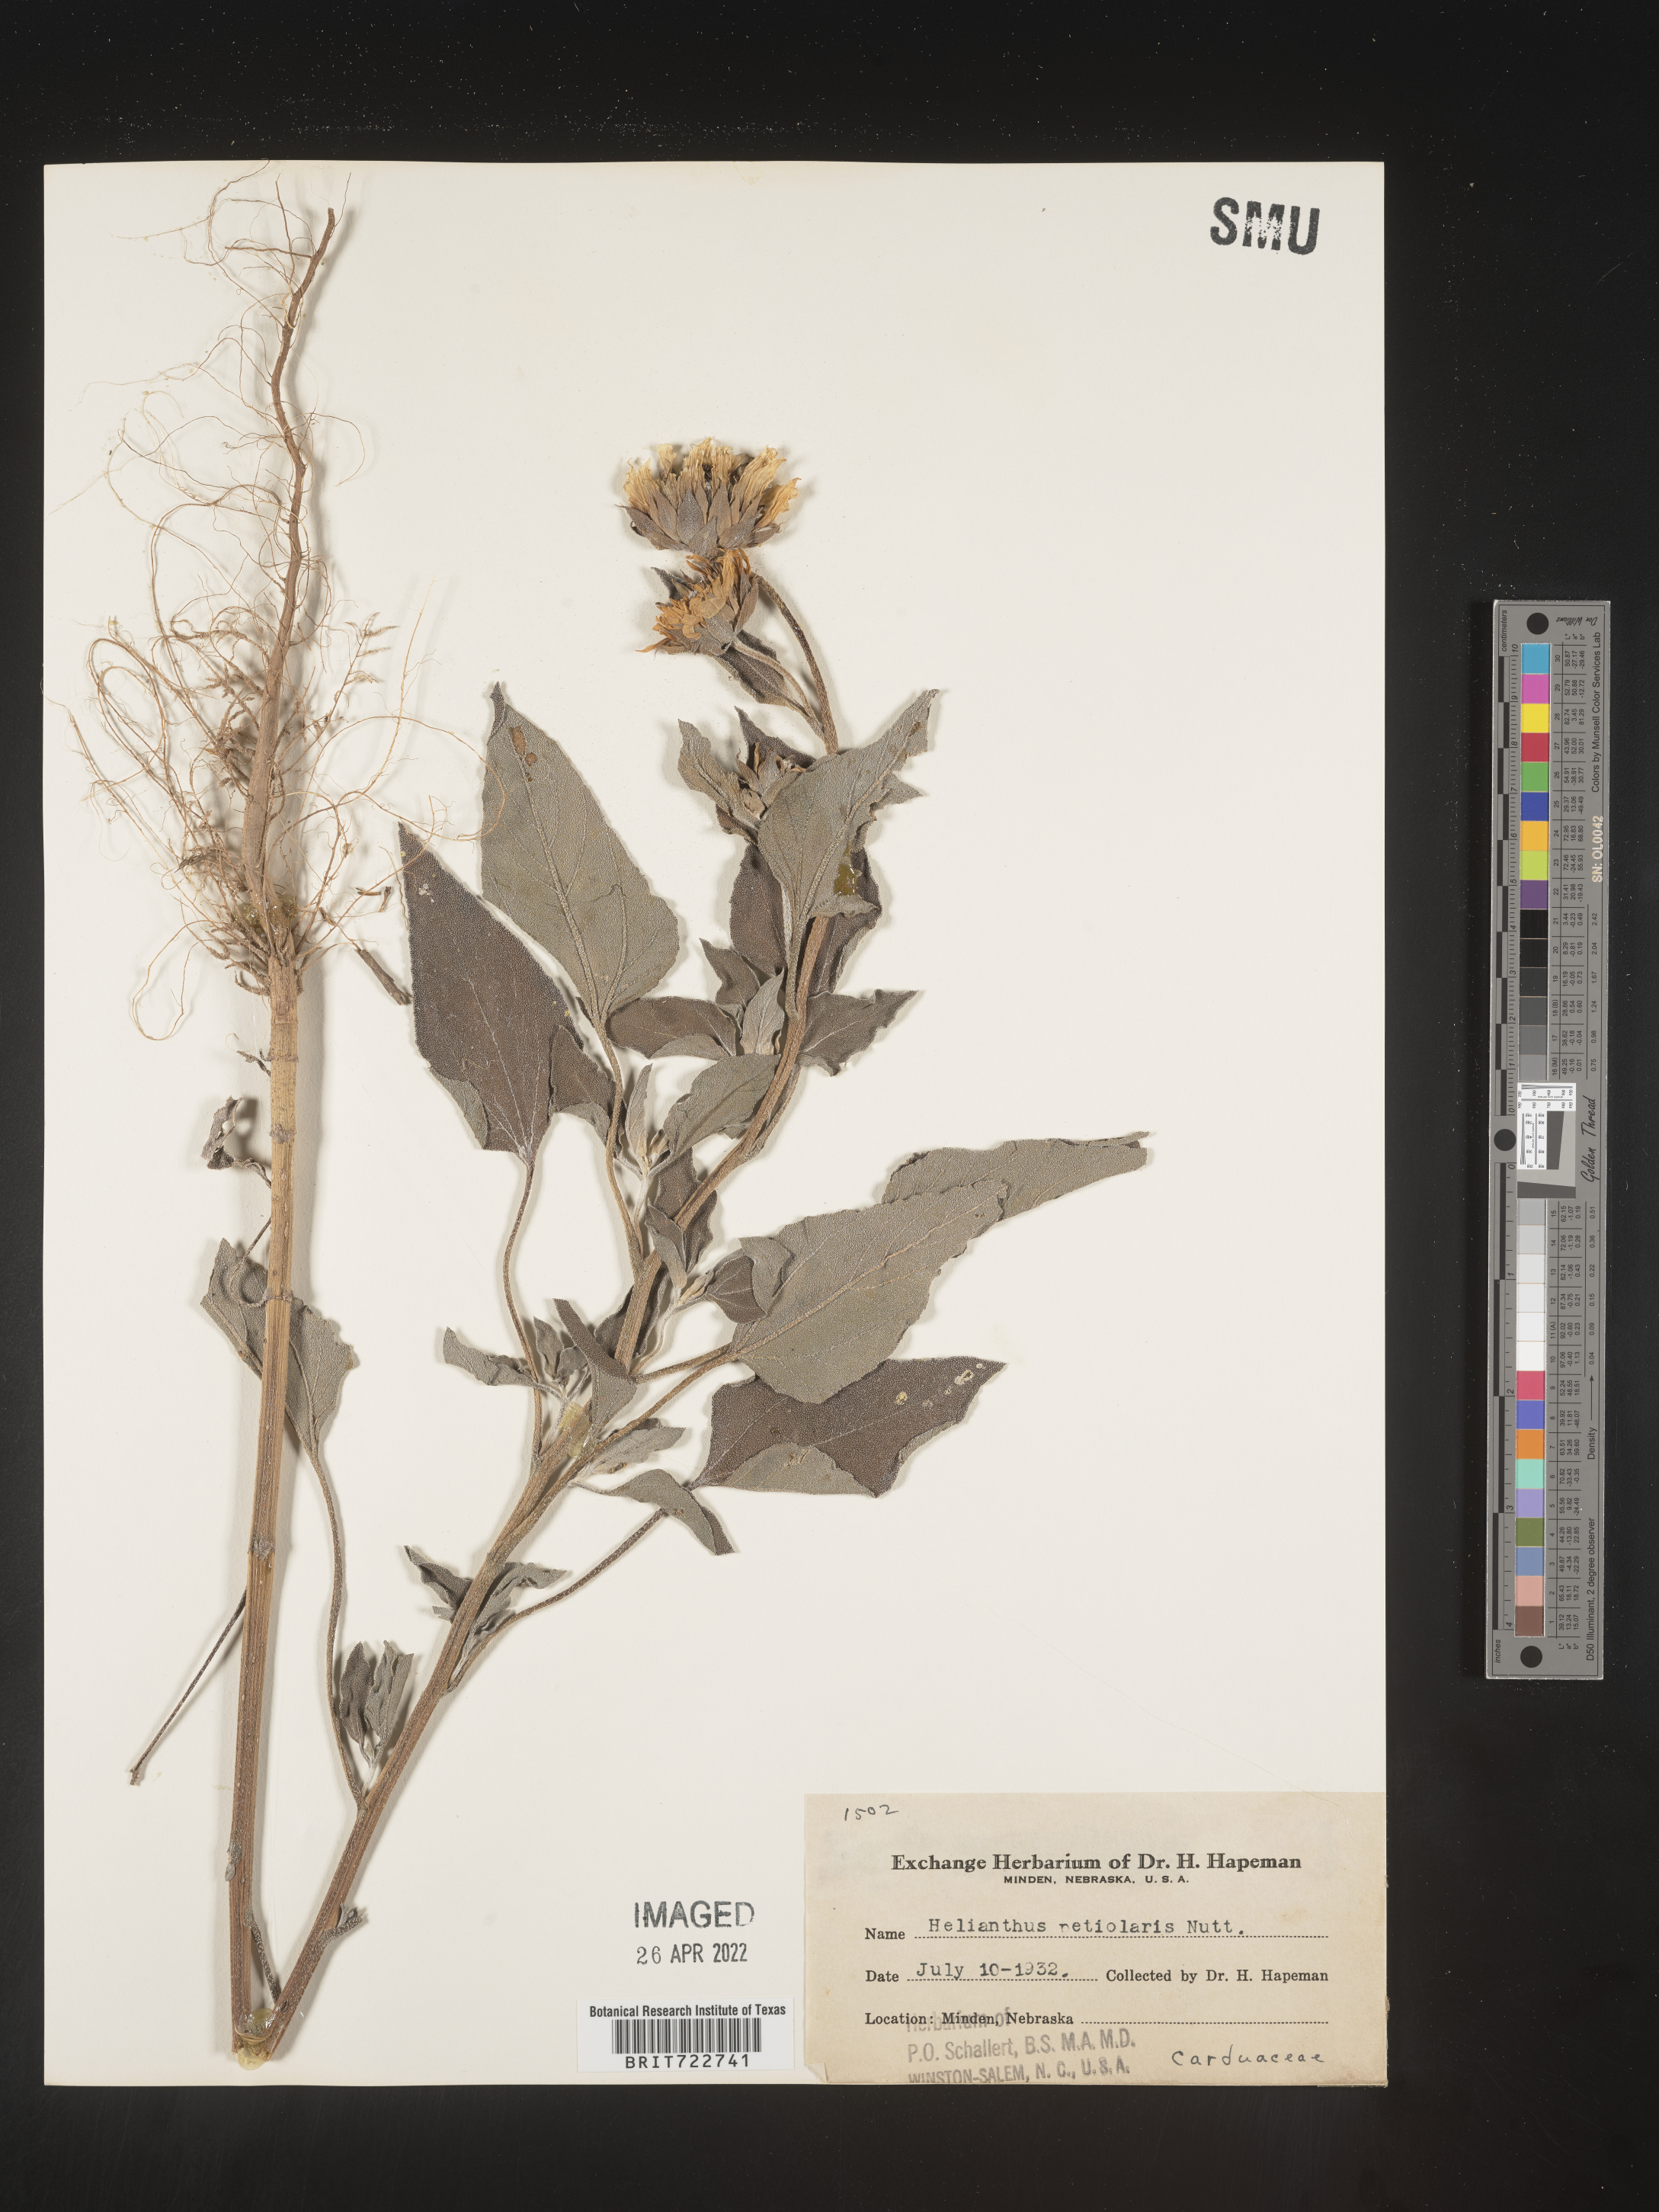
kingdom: Plantae
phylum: Tracheophyta
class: Magnoliopsida
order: Asterales
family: Asteraceae
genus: Helianthus
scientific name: Helianthus petiolaris
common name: Lesser sunflower
